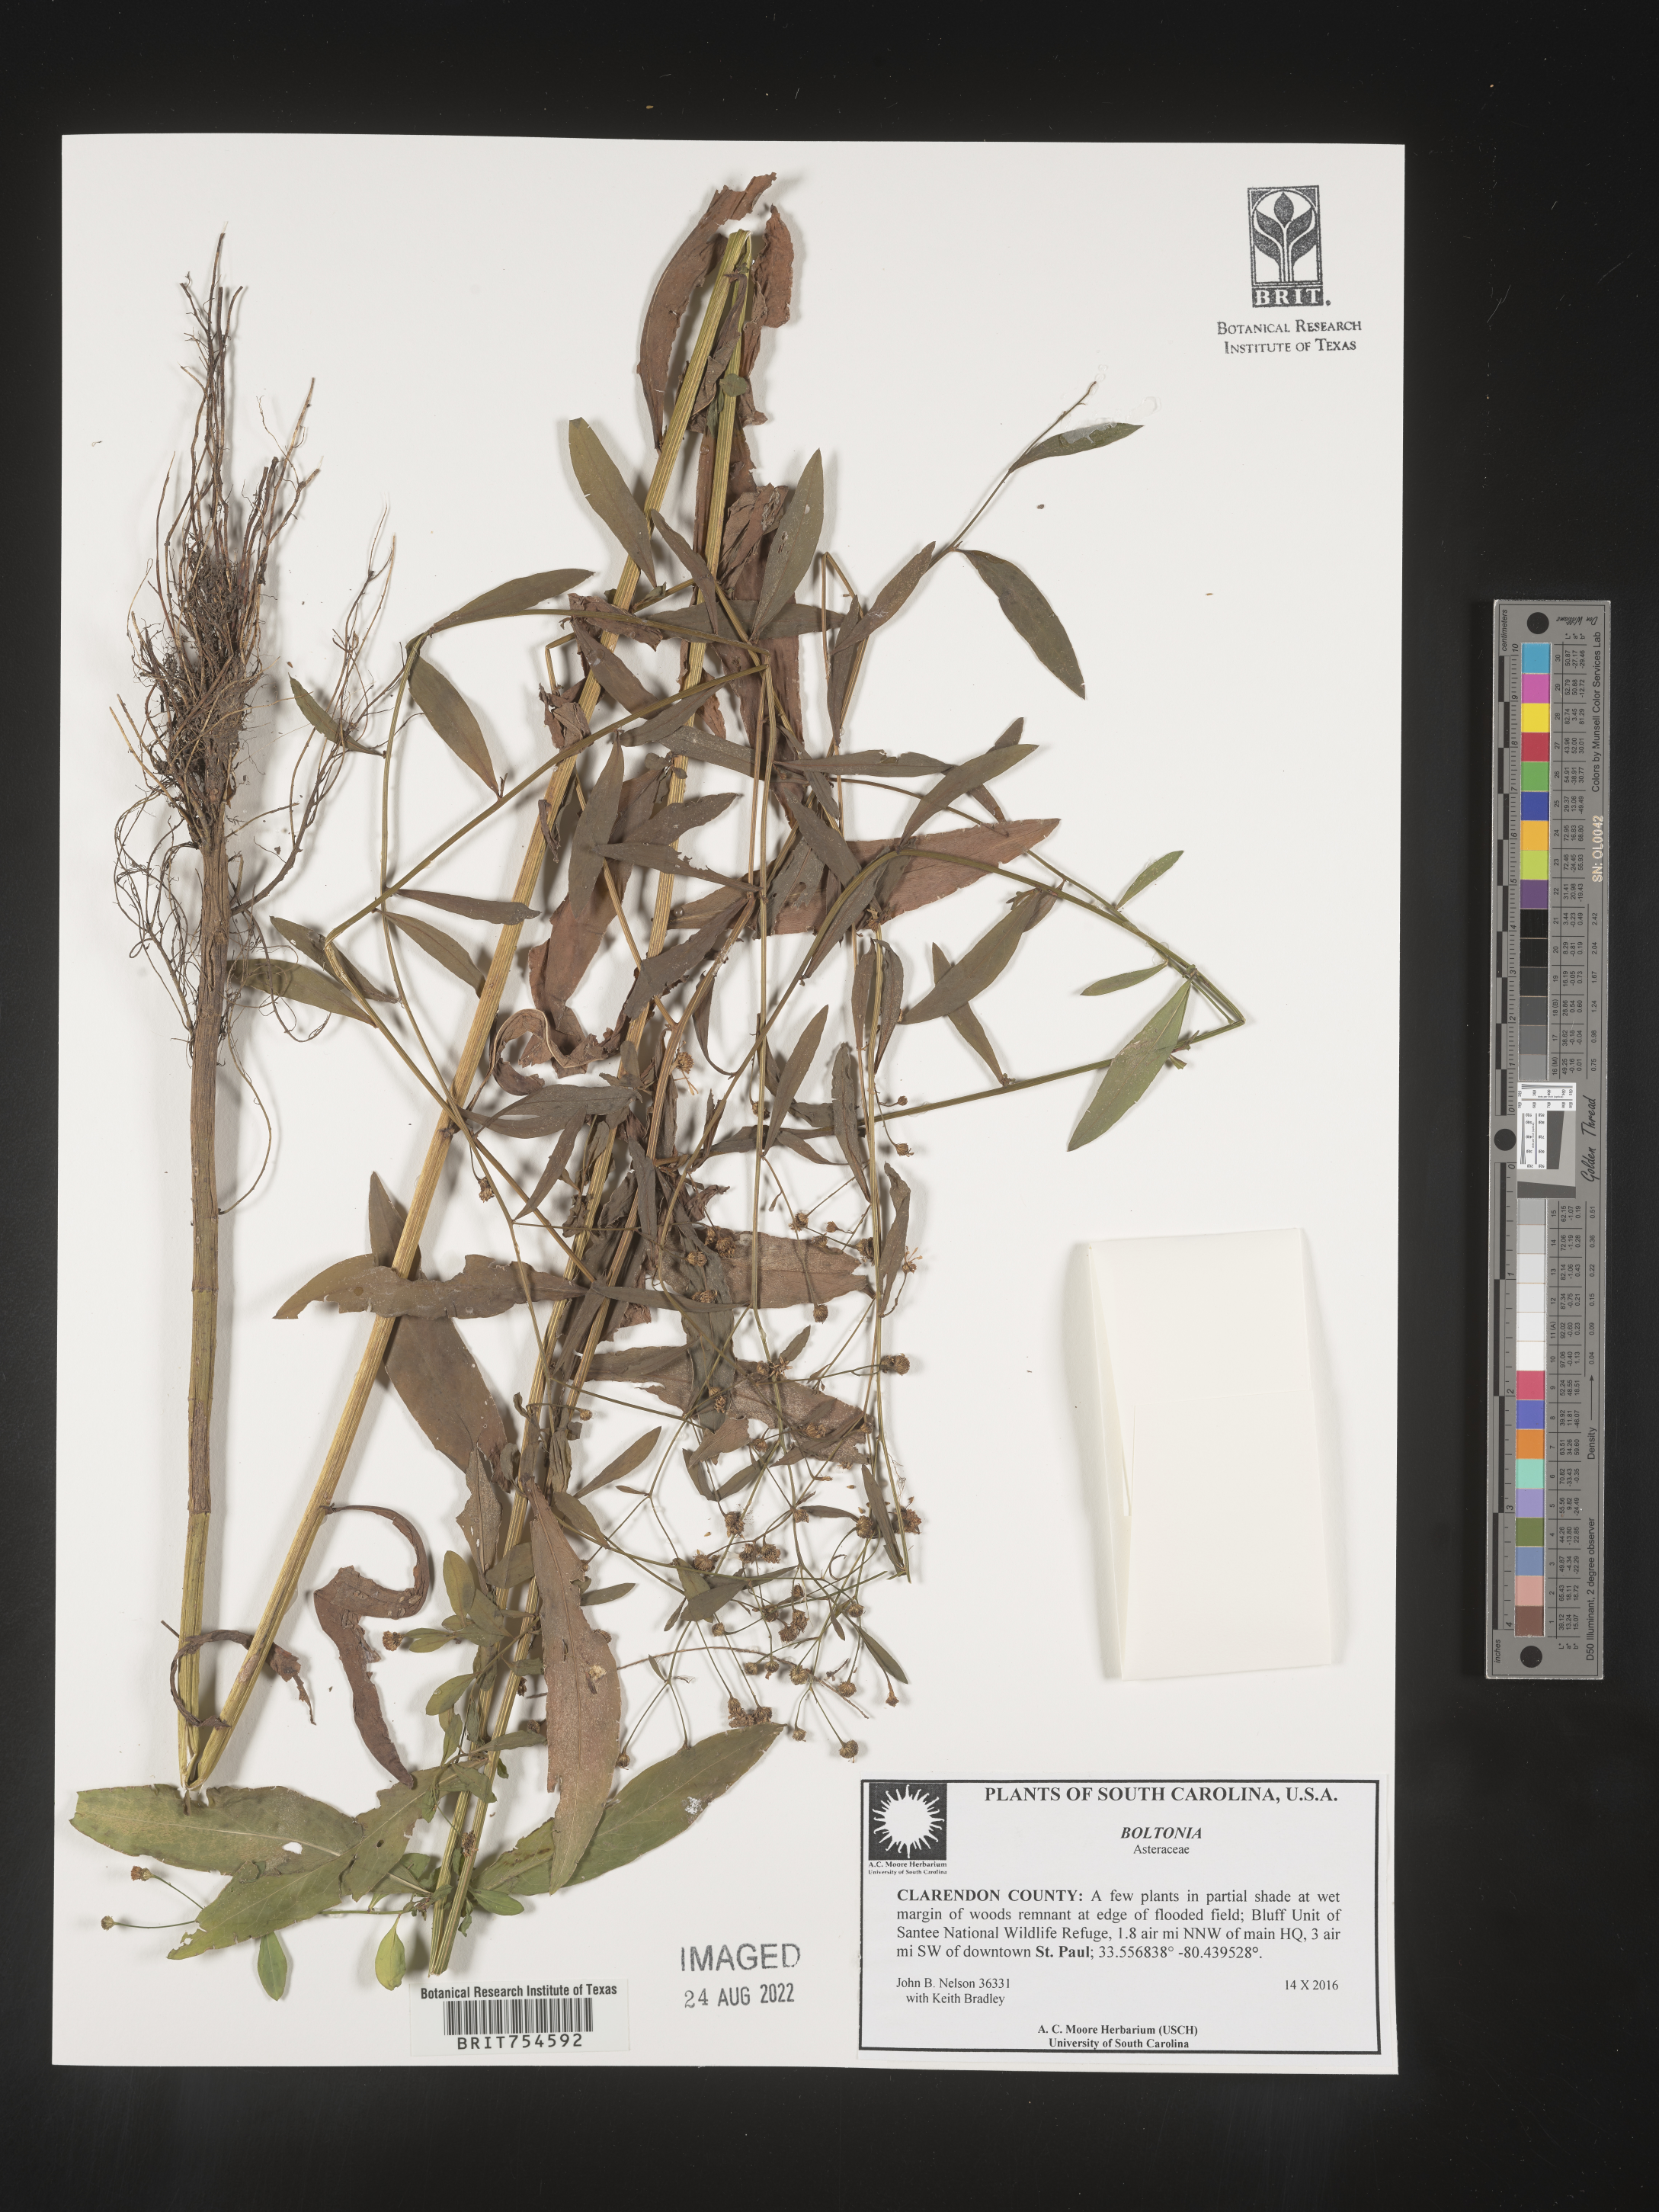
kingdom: Plantae
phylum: Tracheophyta
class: Magnoliopsida
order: Asterales
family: Asteraceae
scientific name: Asteraceae
